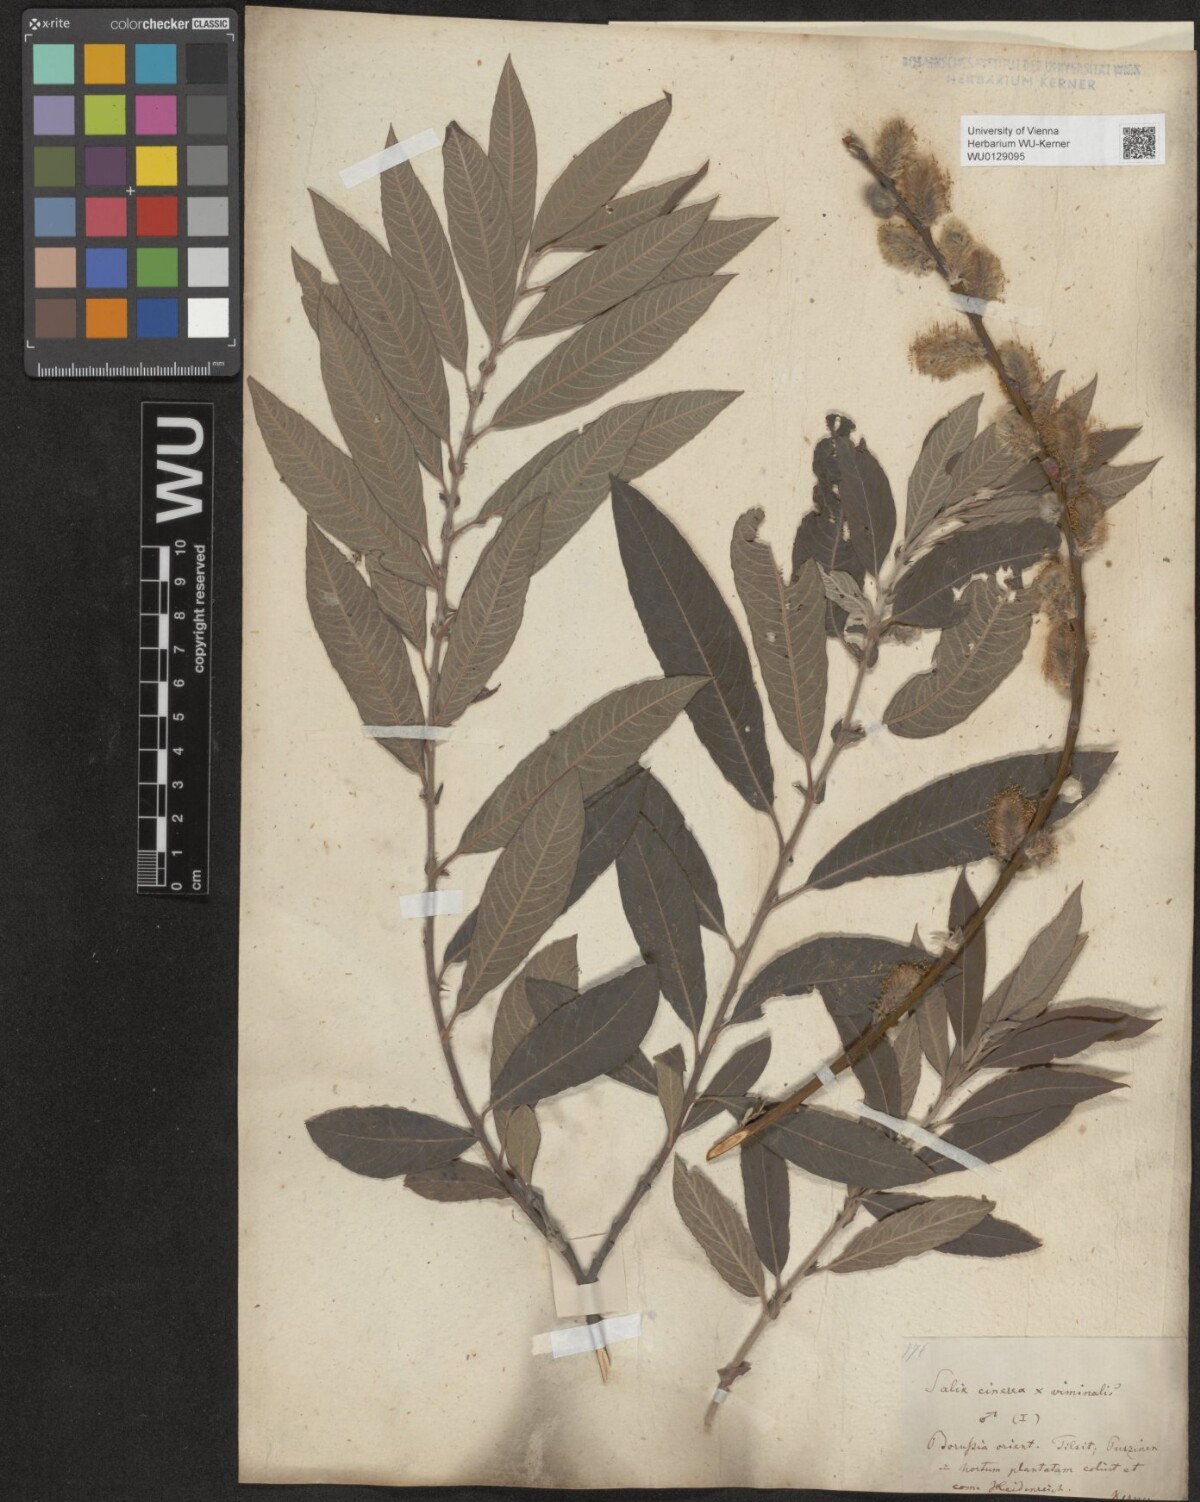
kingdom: Plantae
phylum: Tracheophyta
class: Magnoliopsida
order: Malpighiales
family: Salicaceae
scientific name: Salicaceae
